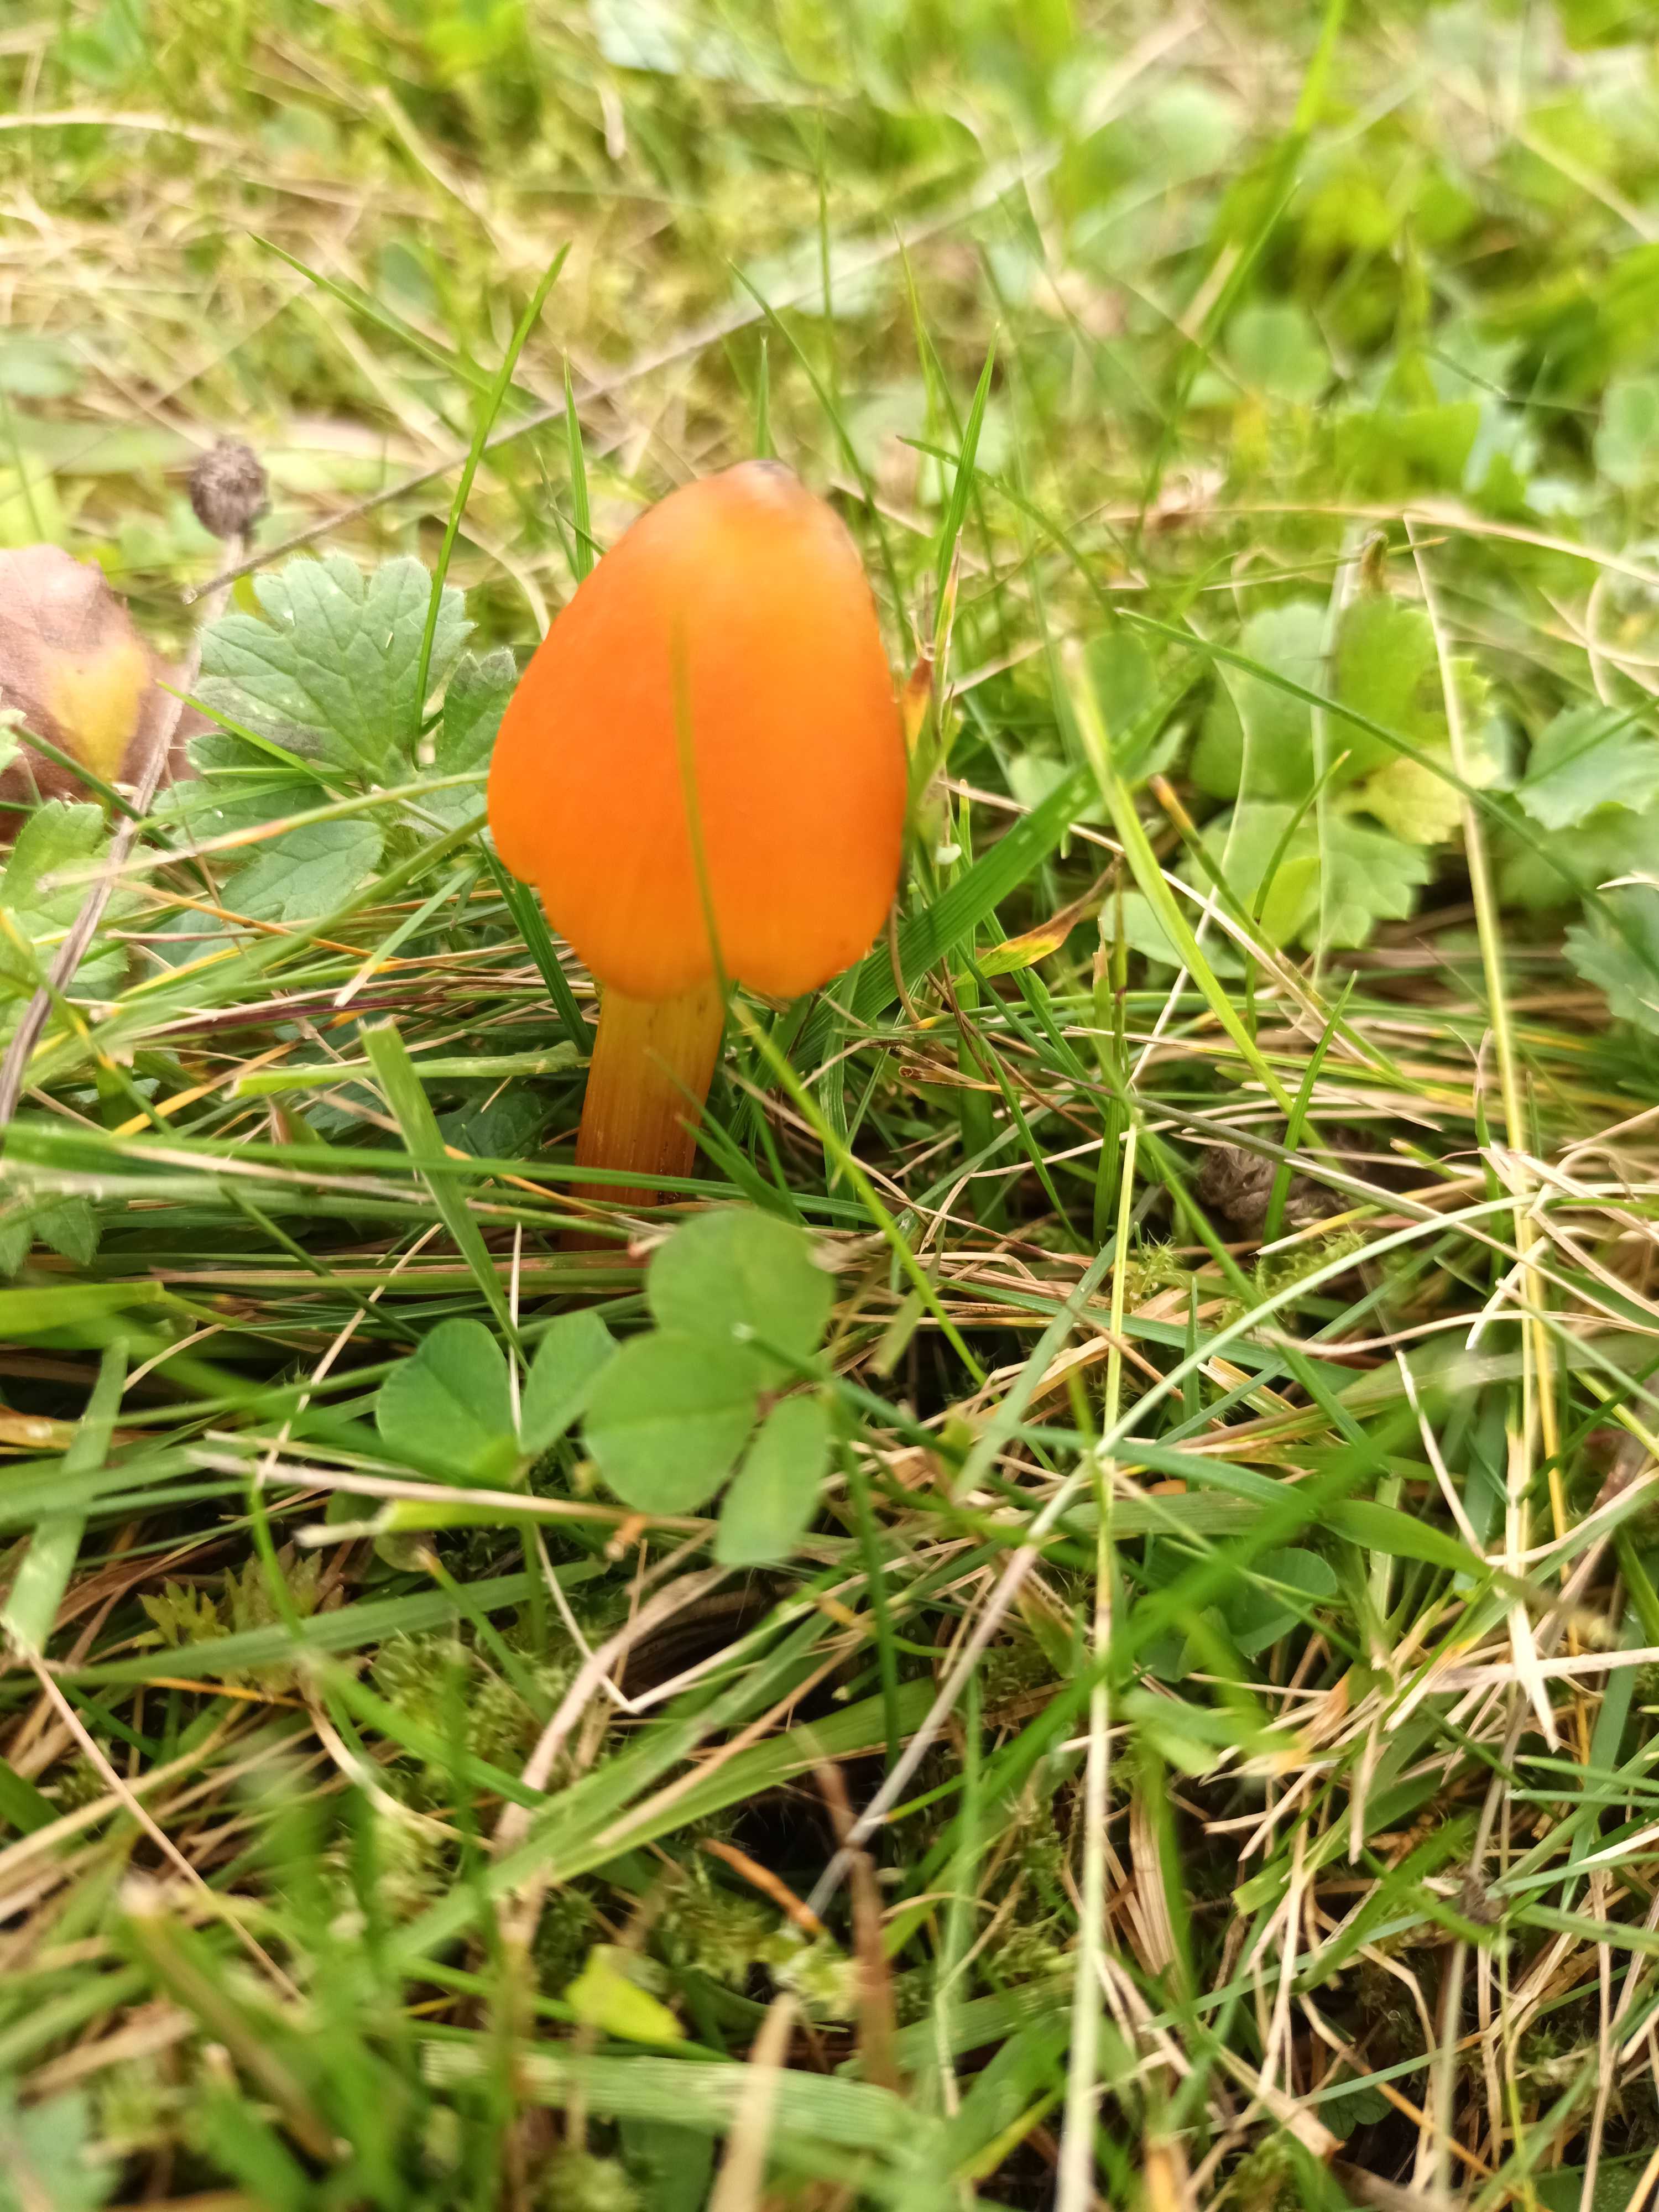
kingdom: Fungi
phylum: Basidiomycota
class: Agaricomycetes
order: Agaricales
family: Hygrophoraceae
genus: Hygrocybe
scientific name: Hygrocybe conica
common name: kegle-vokshat
